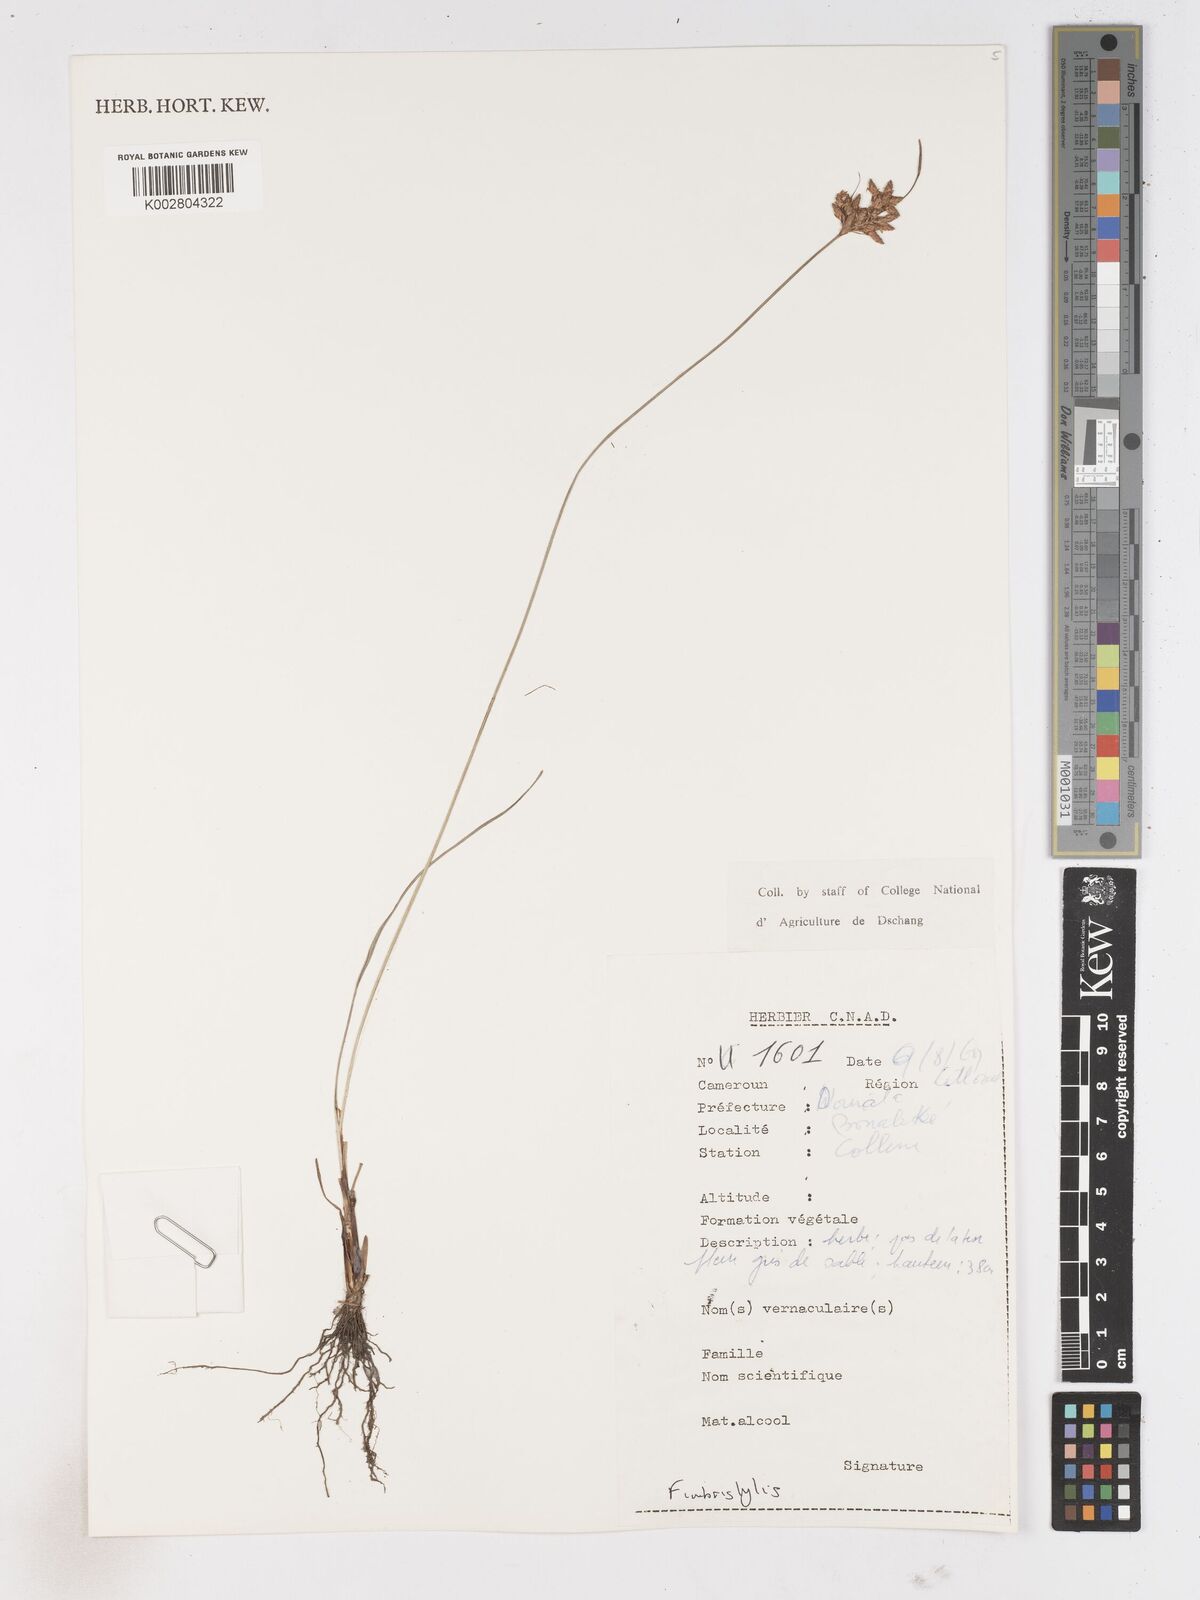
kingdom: Plantae
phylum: Tracheophyta
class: Liliopsida
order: Poales
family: Cyperaceae
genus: Fimbristylis
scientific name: Fimbristylis
